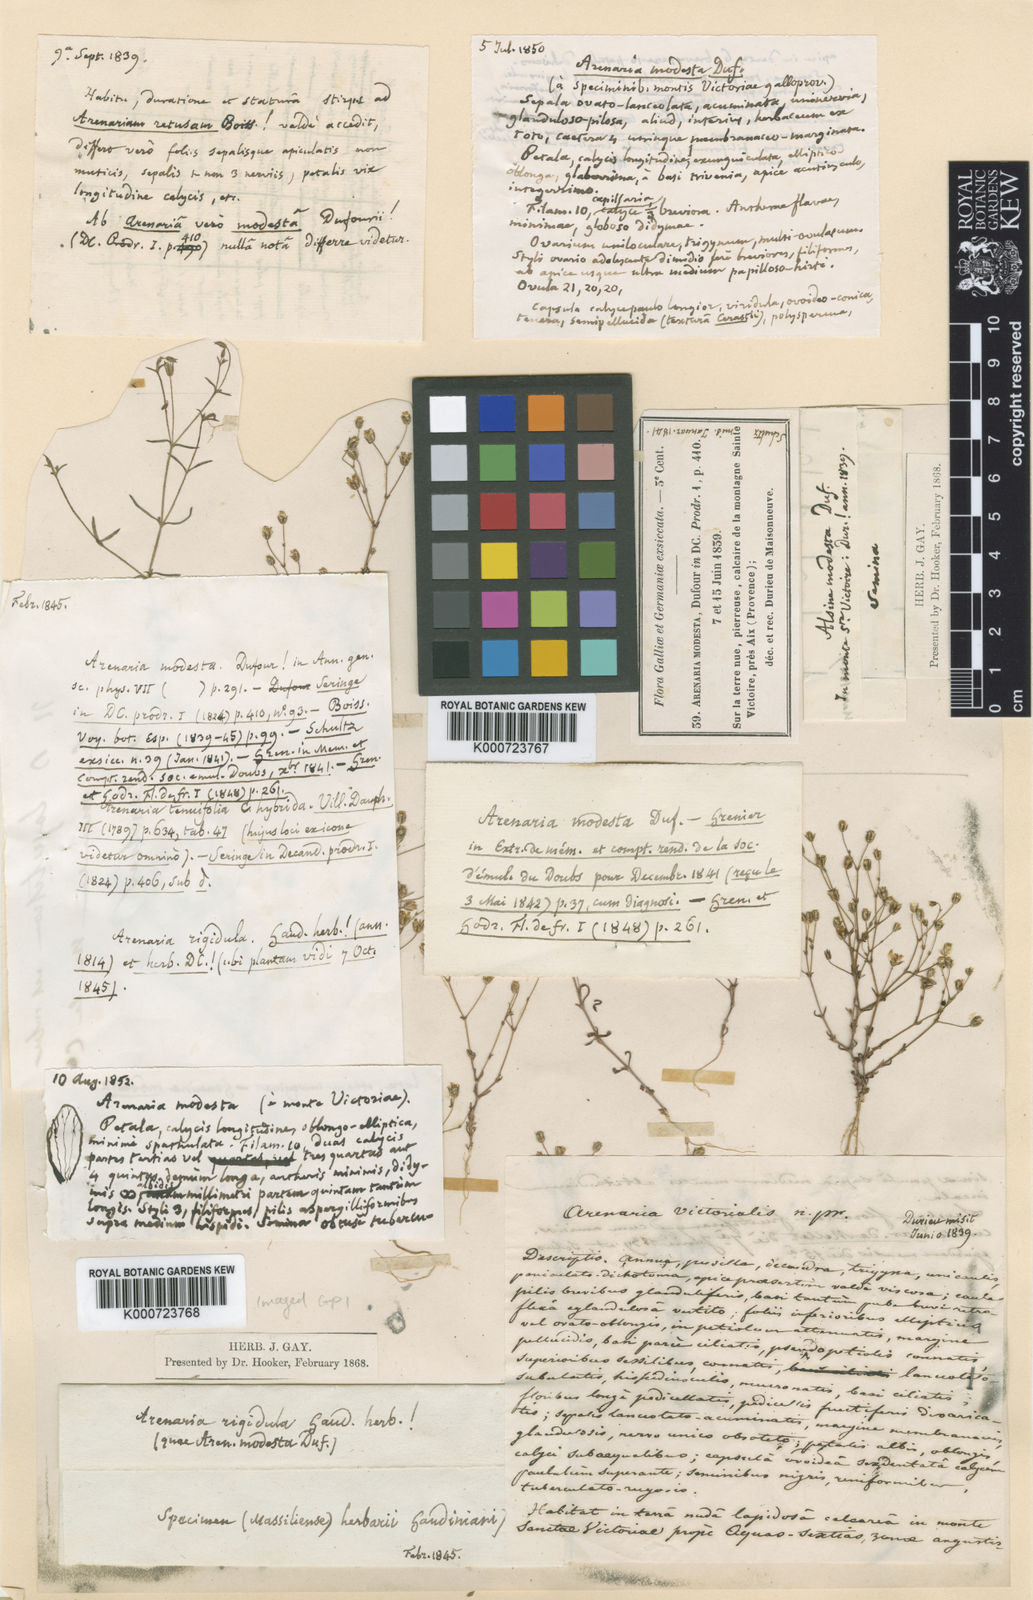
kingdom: Plantae
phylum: Tracheophyta
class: Magnoliopsida
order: Caryophyllales
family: Caryophyllaceae
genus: Arenaria
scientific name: Arenaria modesta
